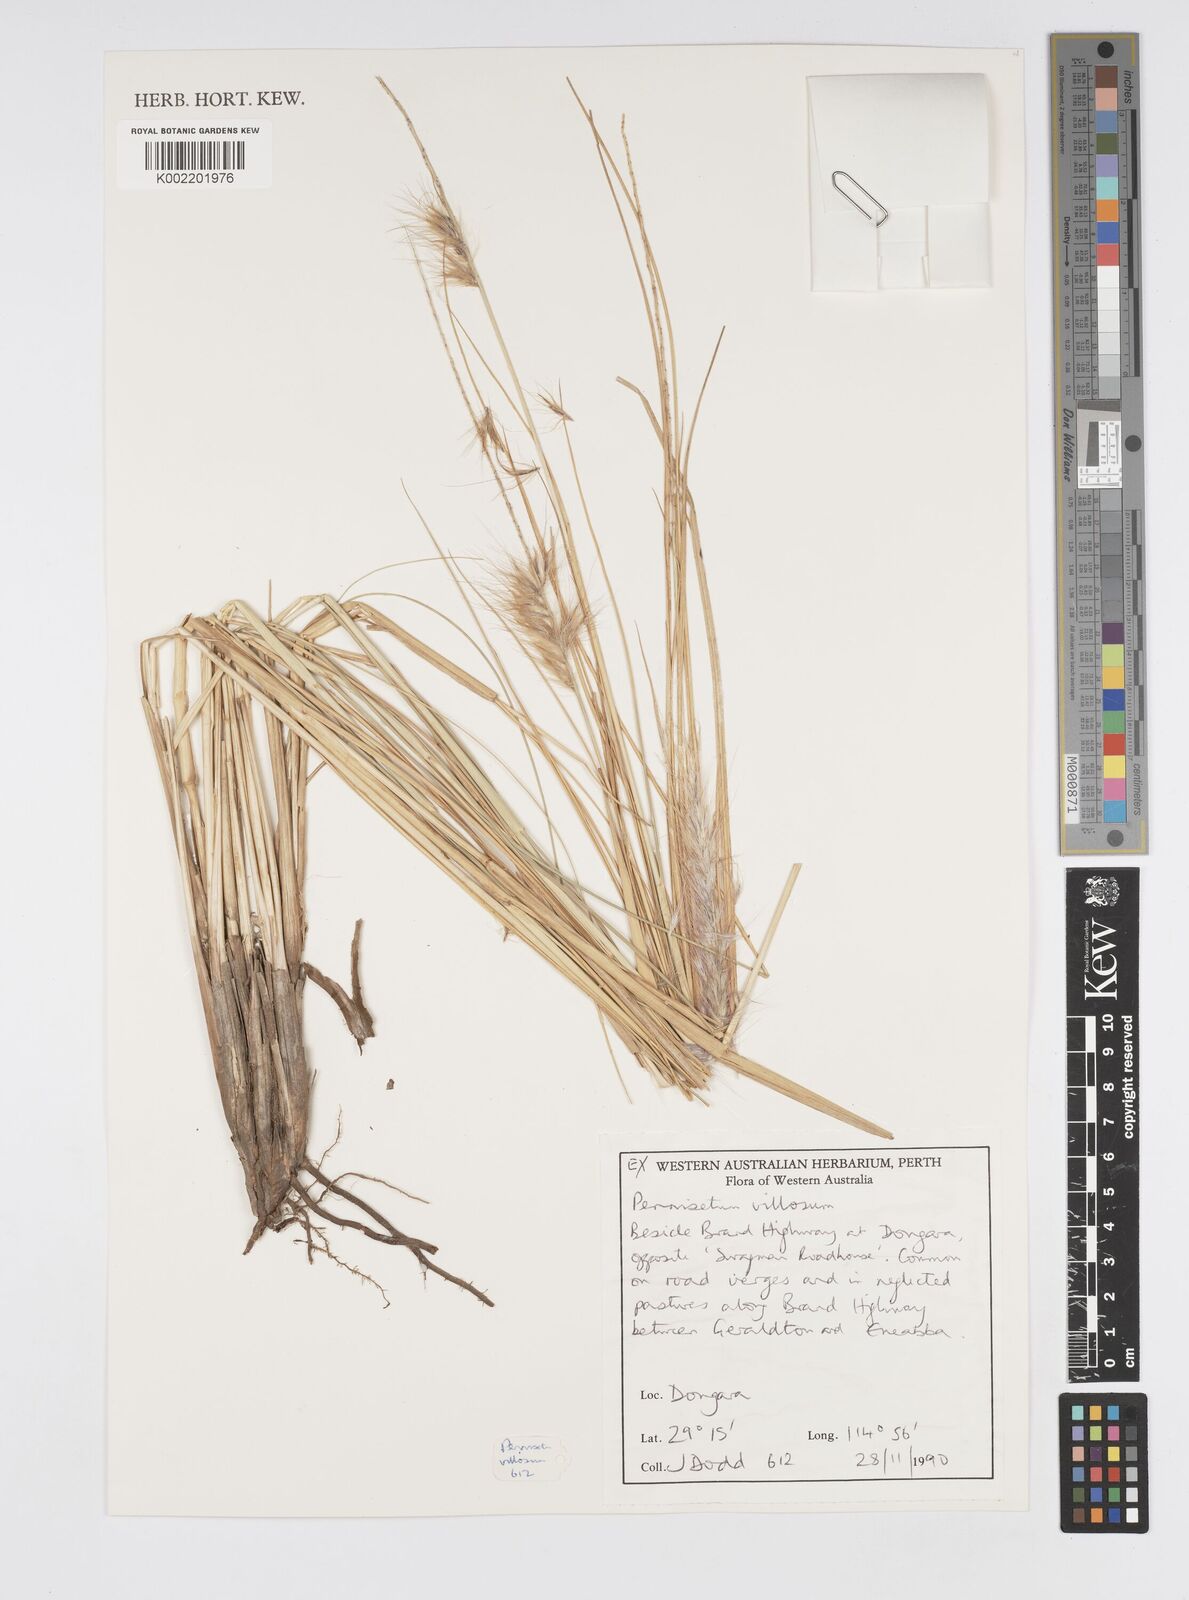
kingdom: Plantae
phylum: Tracheophyta
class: Liliopsida
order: Poales
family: Poaceae
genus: Cenchrus
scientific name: Cenchrus longisetus
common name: Feathertop
